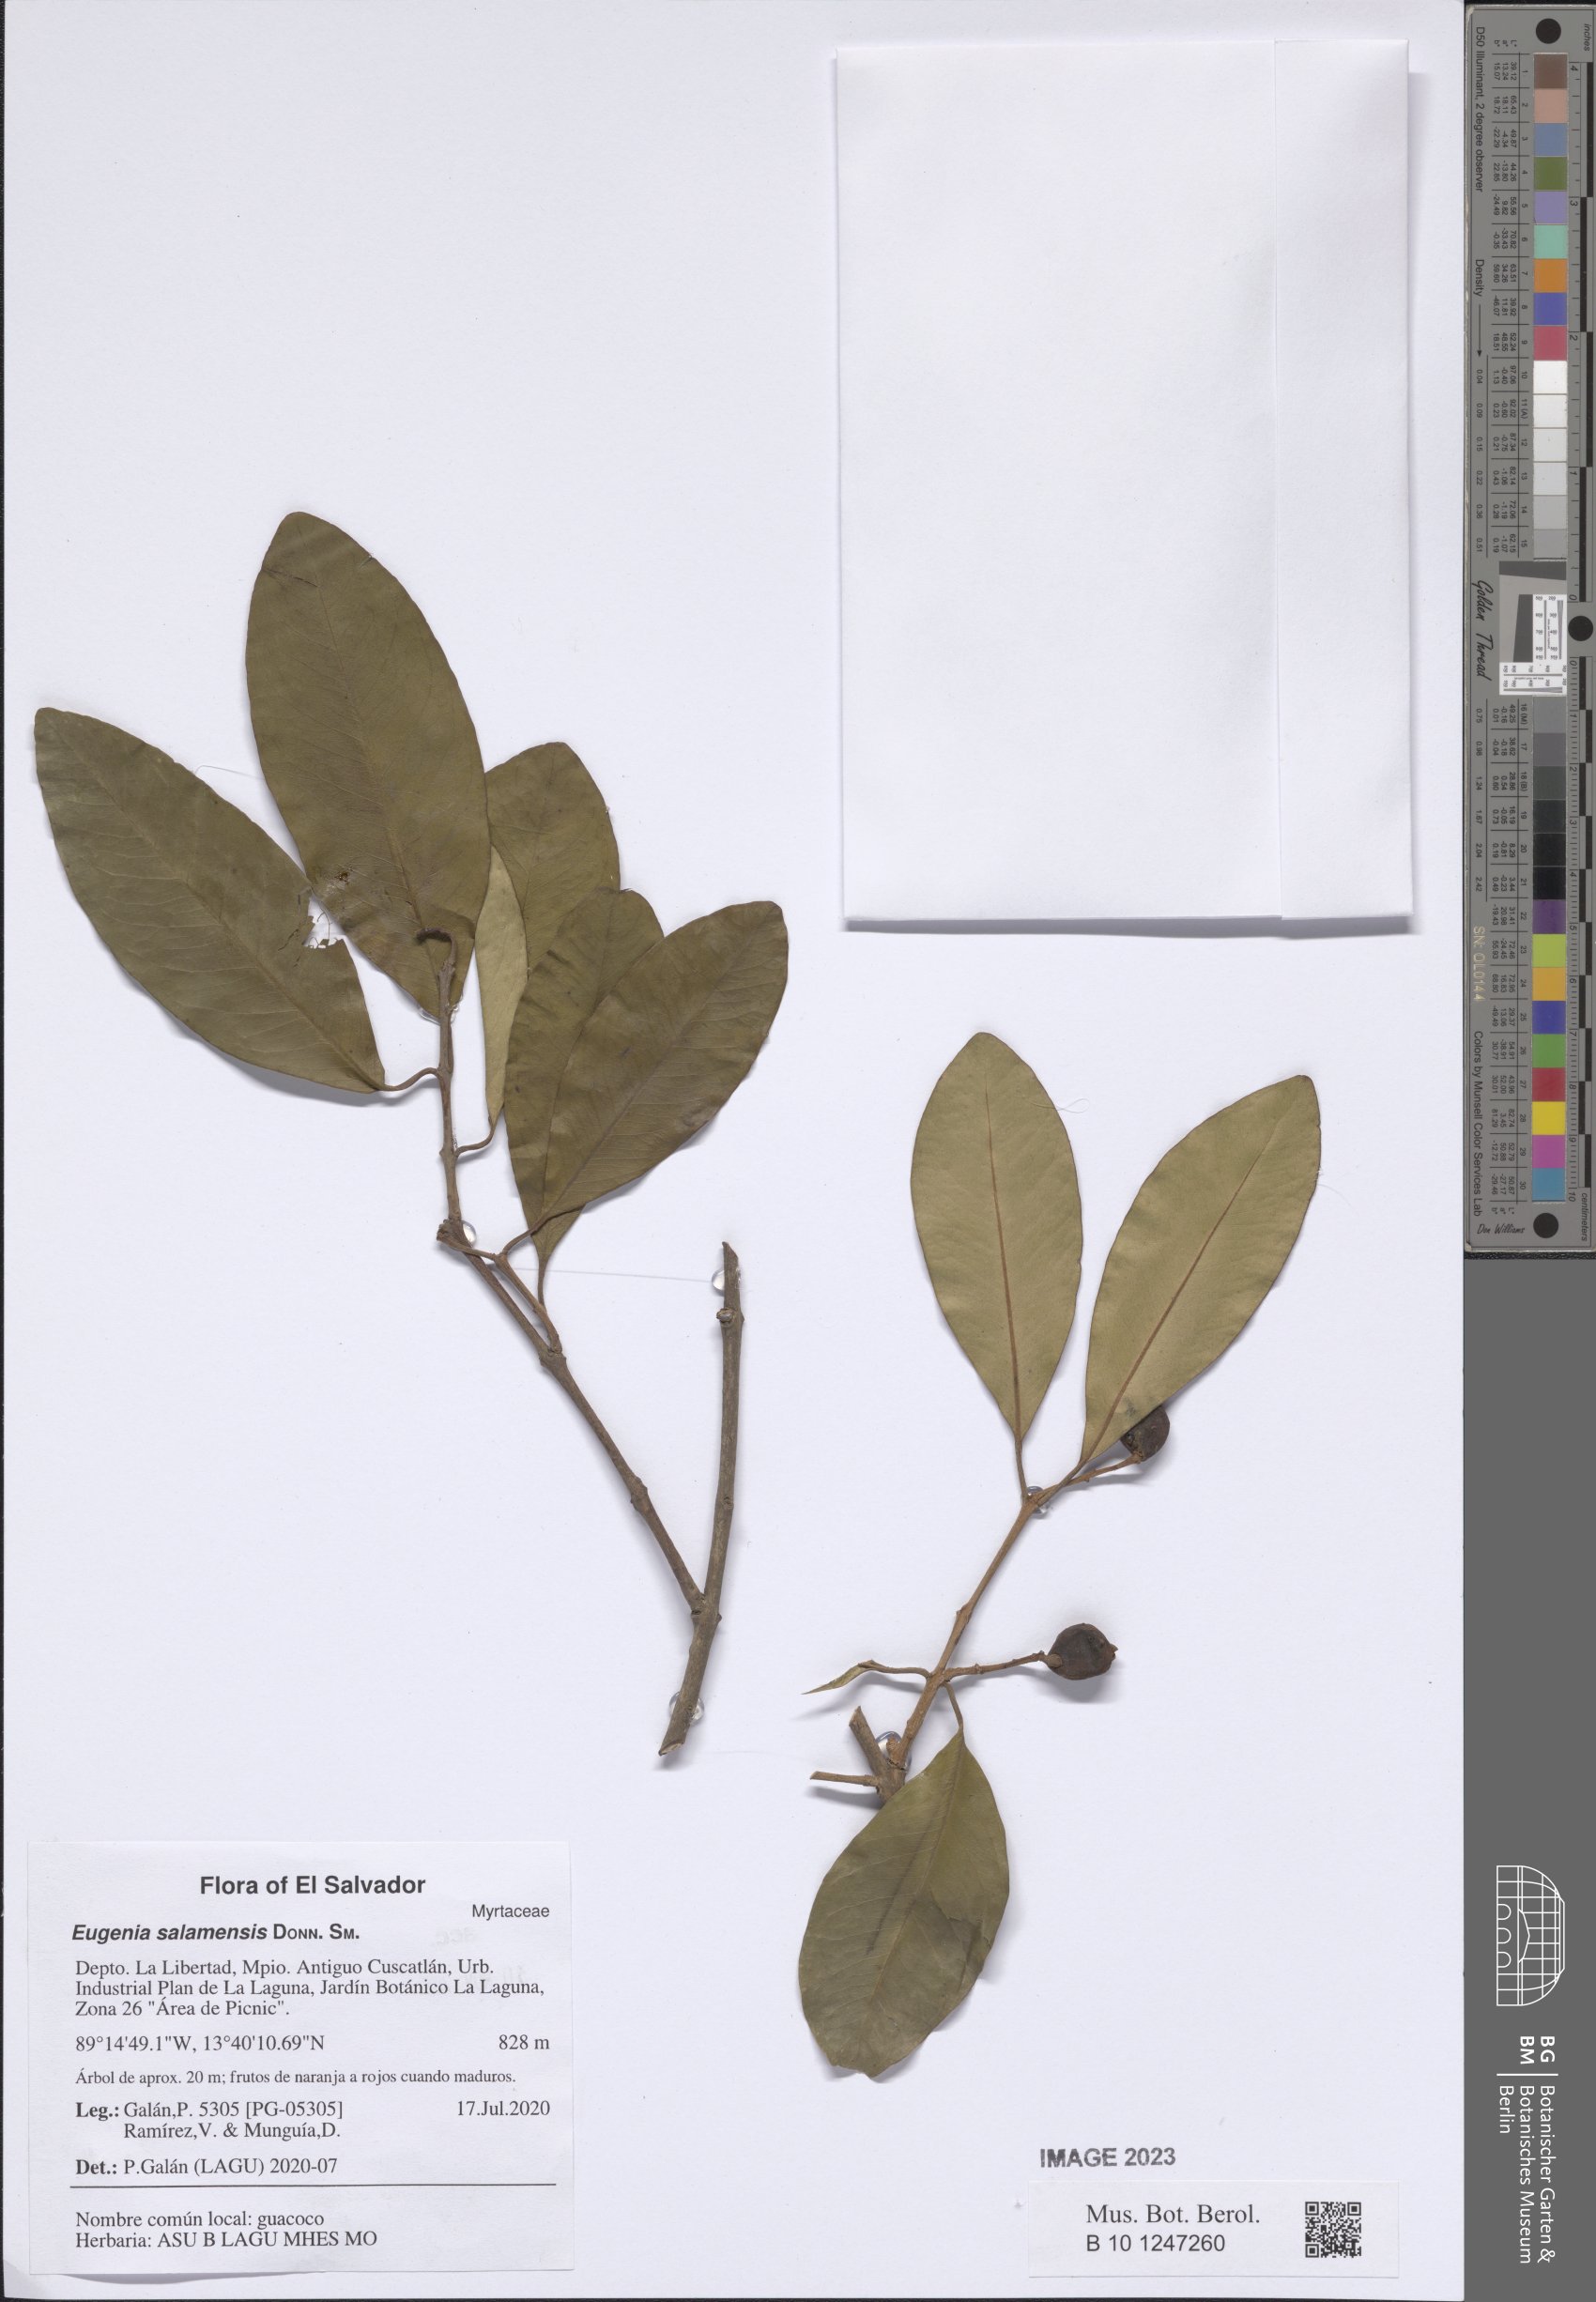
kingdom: Plantae
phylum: Tracheophyta
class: Magnoliopsida
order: Myrtales
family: Myrtaceae
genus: Eugenia
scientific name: Eugenia salamensis
